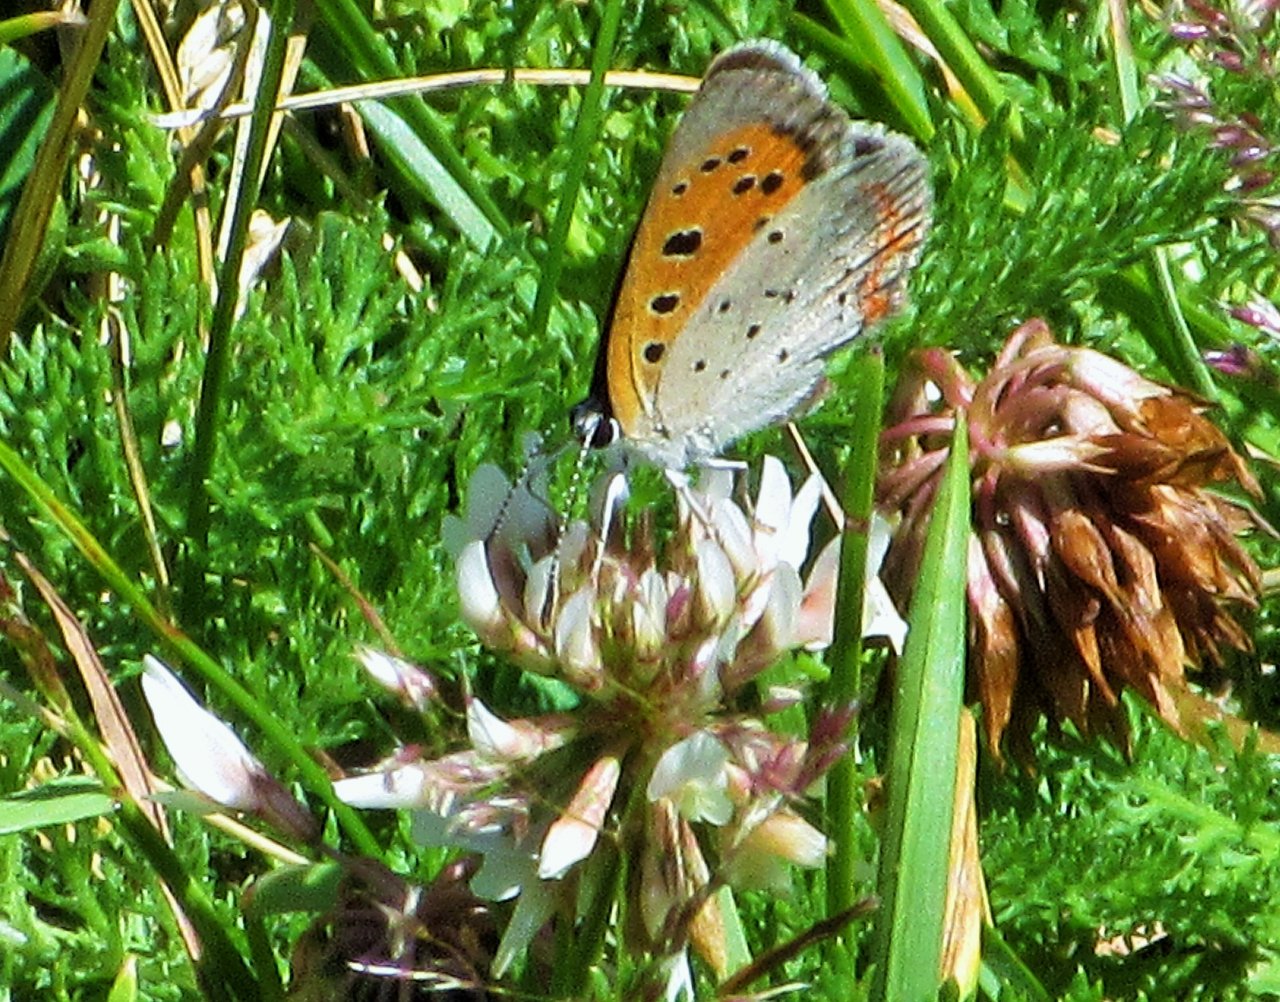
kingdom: Animalia
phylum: Arthropoda
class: Insecta
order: Lepidoptera
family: Lycaenidae
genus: Lycaena
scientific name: Lycaena phlaeas
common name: American Copper
